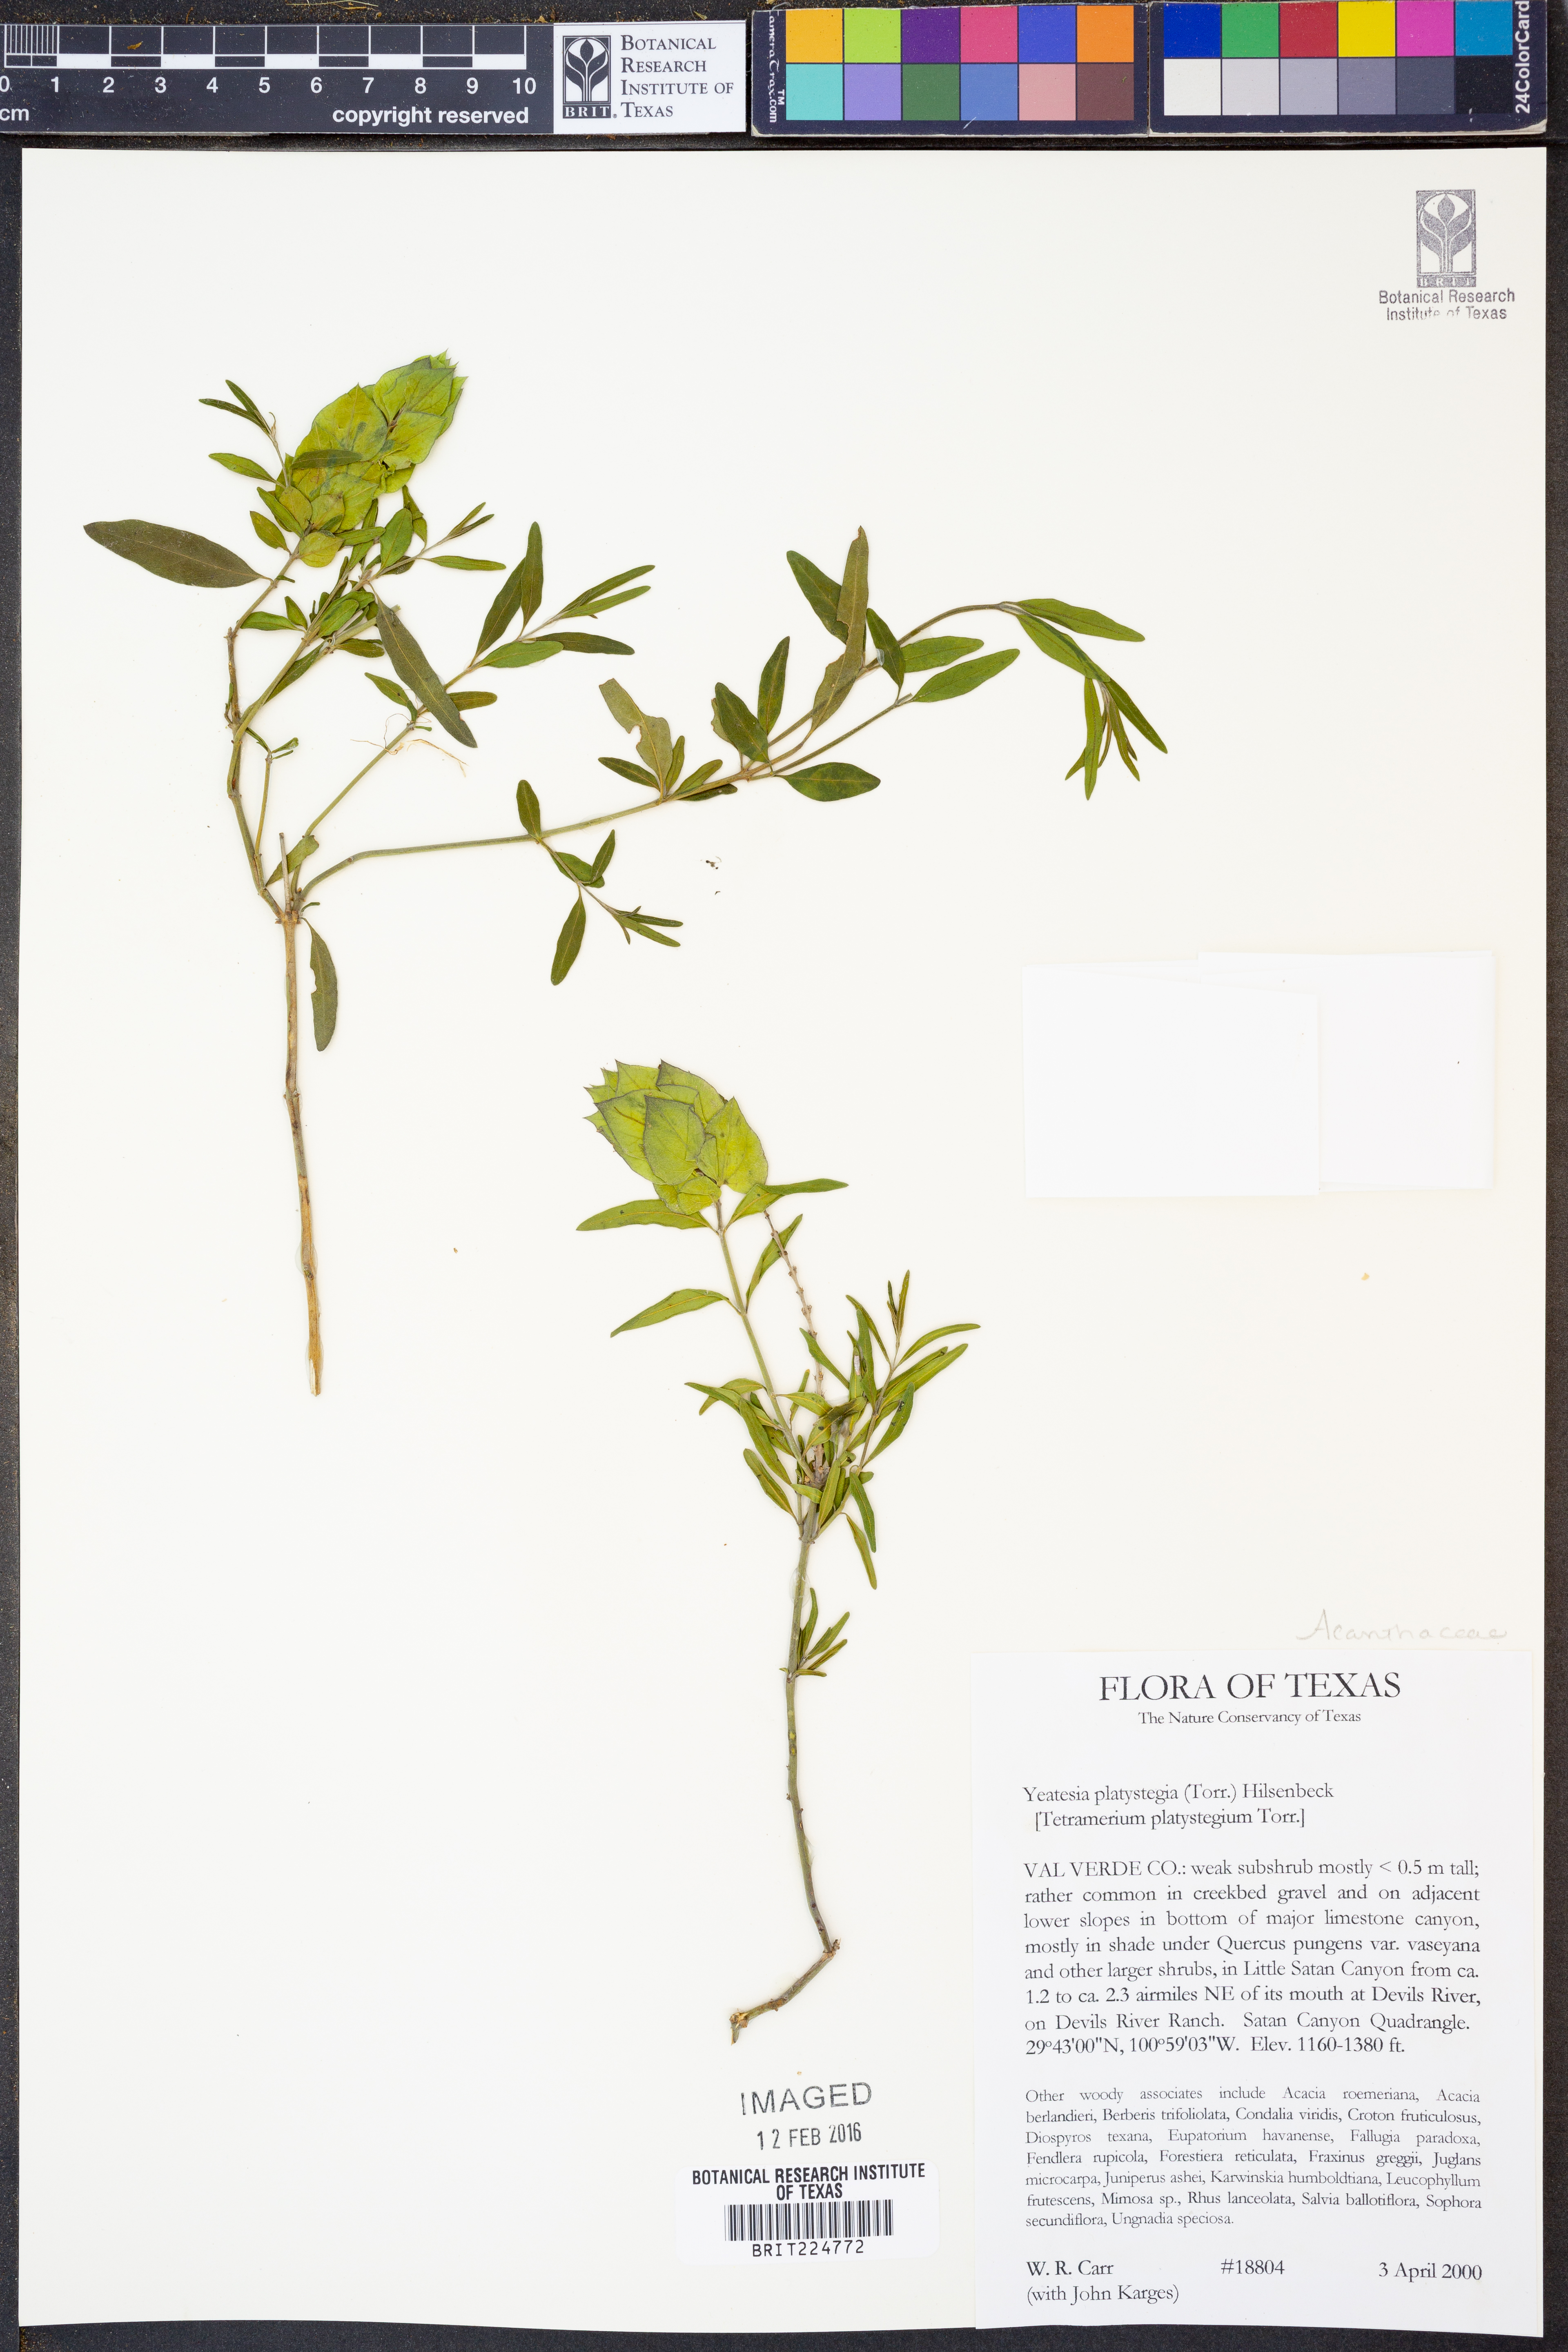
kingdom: Plantae
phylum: Tracheophyta
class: Magnoliopsida
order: Lamiales
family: Acanthaceae
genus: Yeatesia
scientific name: Yeatesia platystegia
